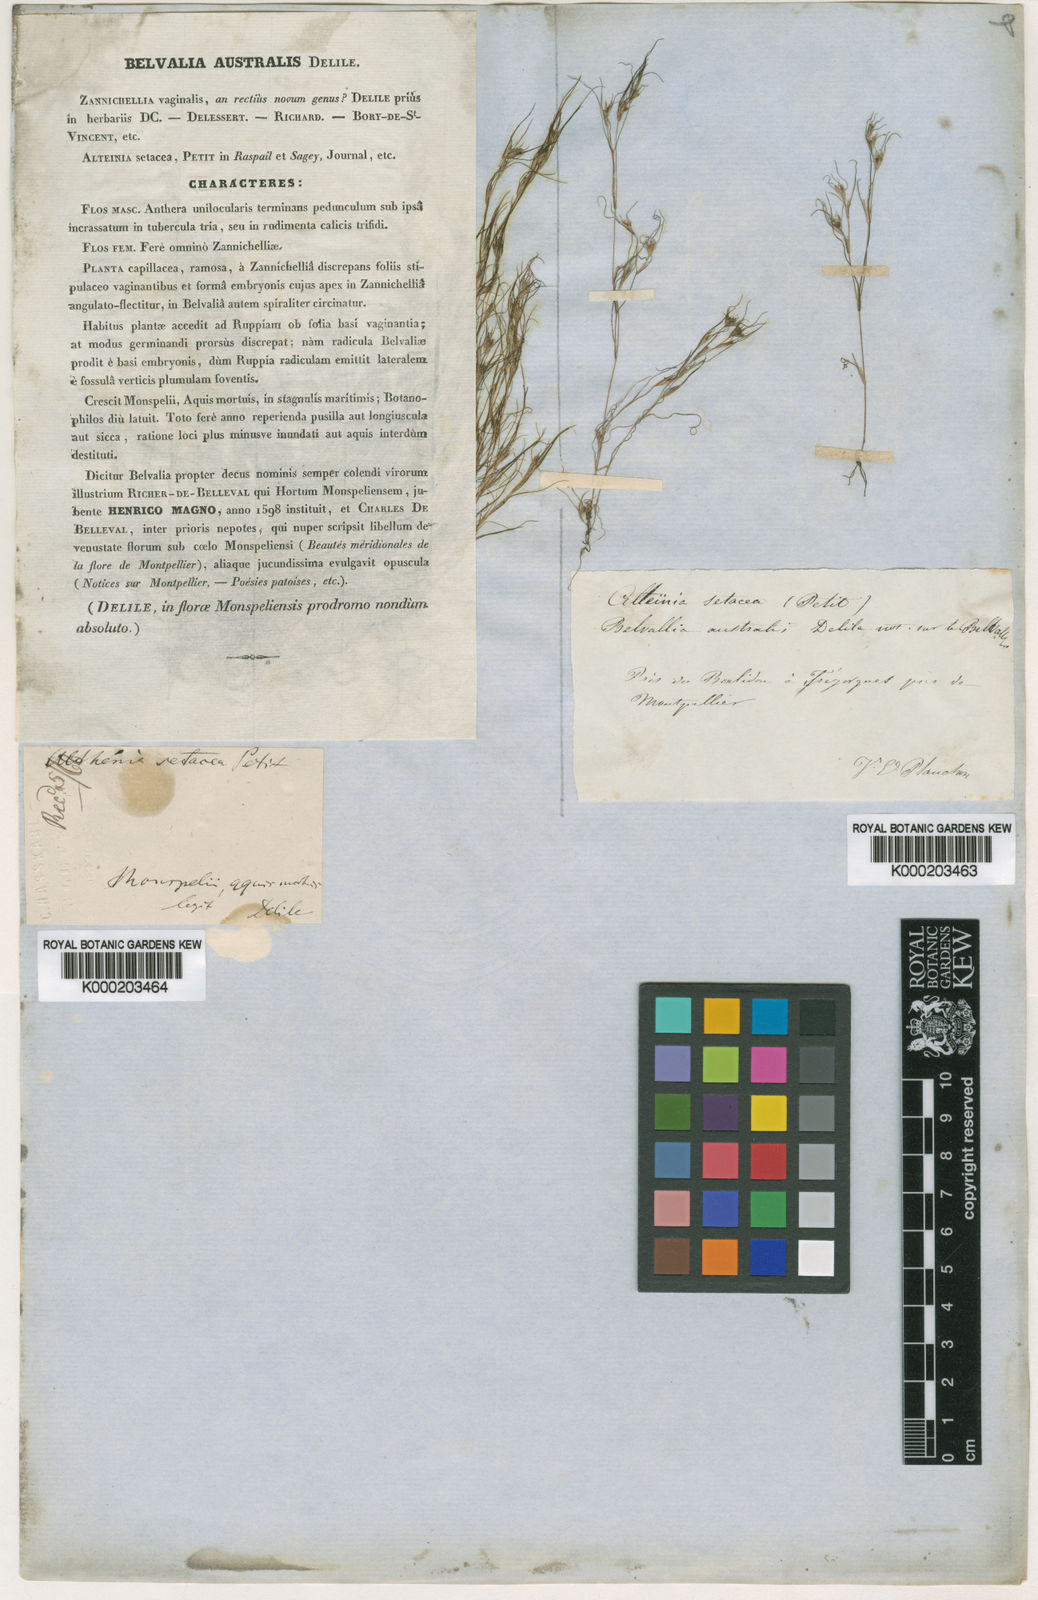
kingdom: Plantae
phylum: Tracheophyta
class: Liliopsida
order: Alismatales
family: Potamogetonaceae
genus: Althenia
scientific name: Althenia filiformis
